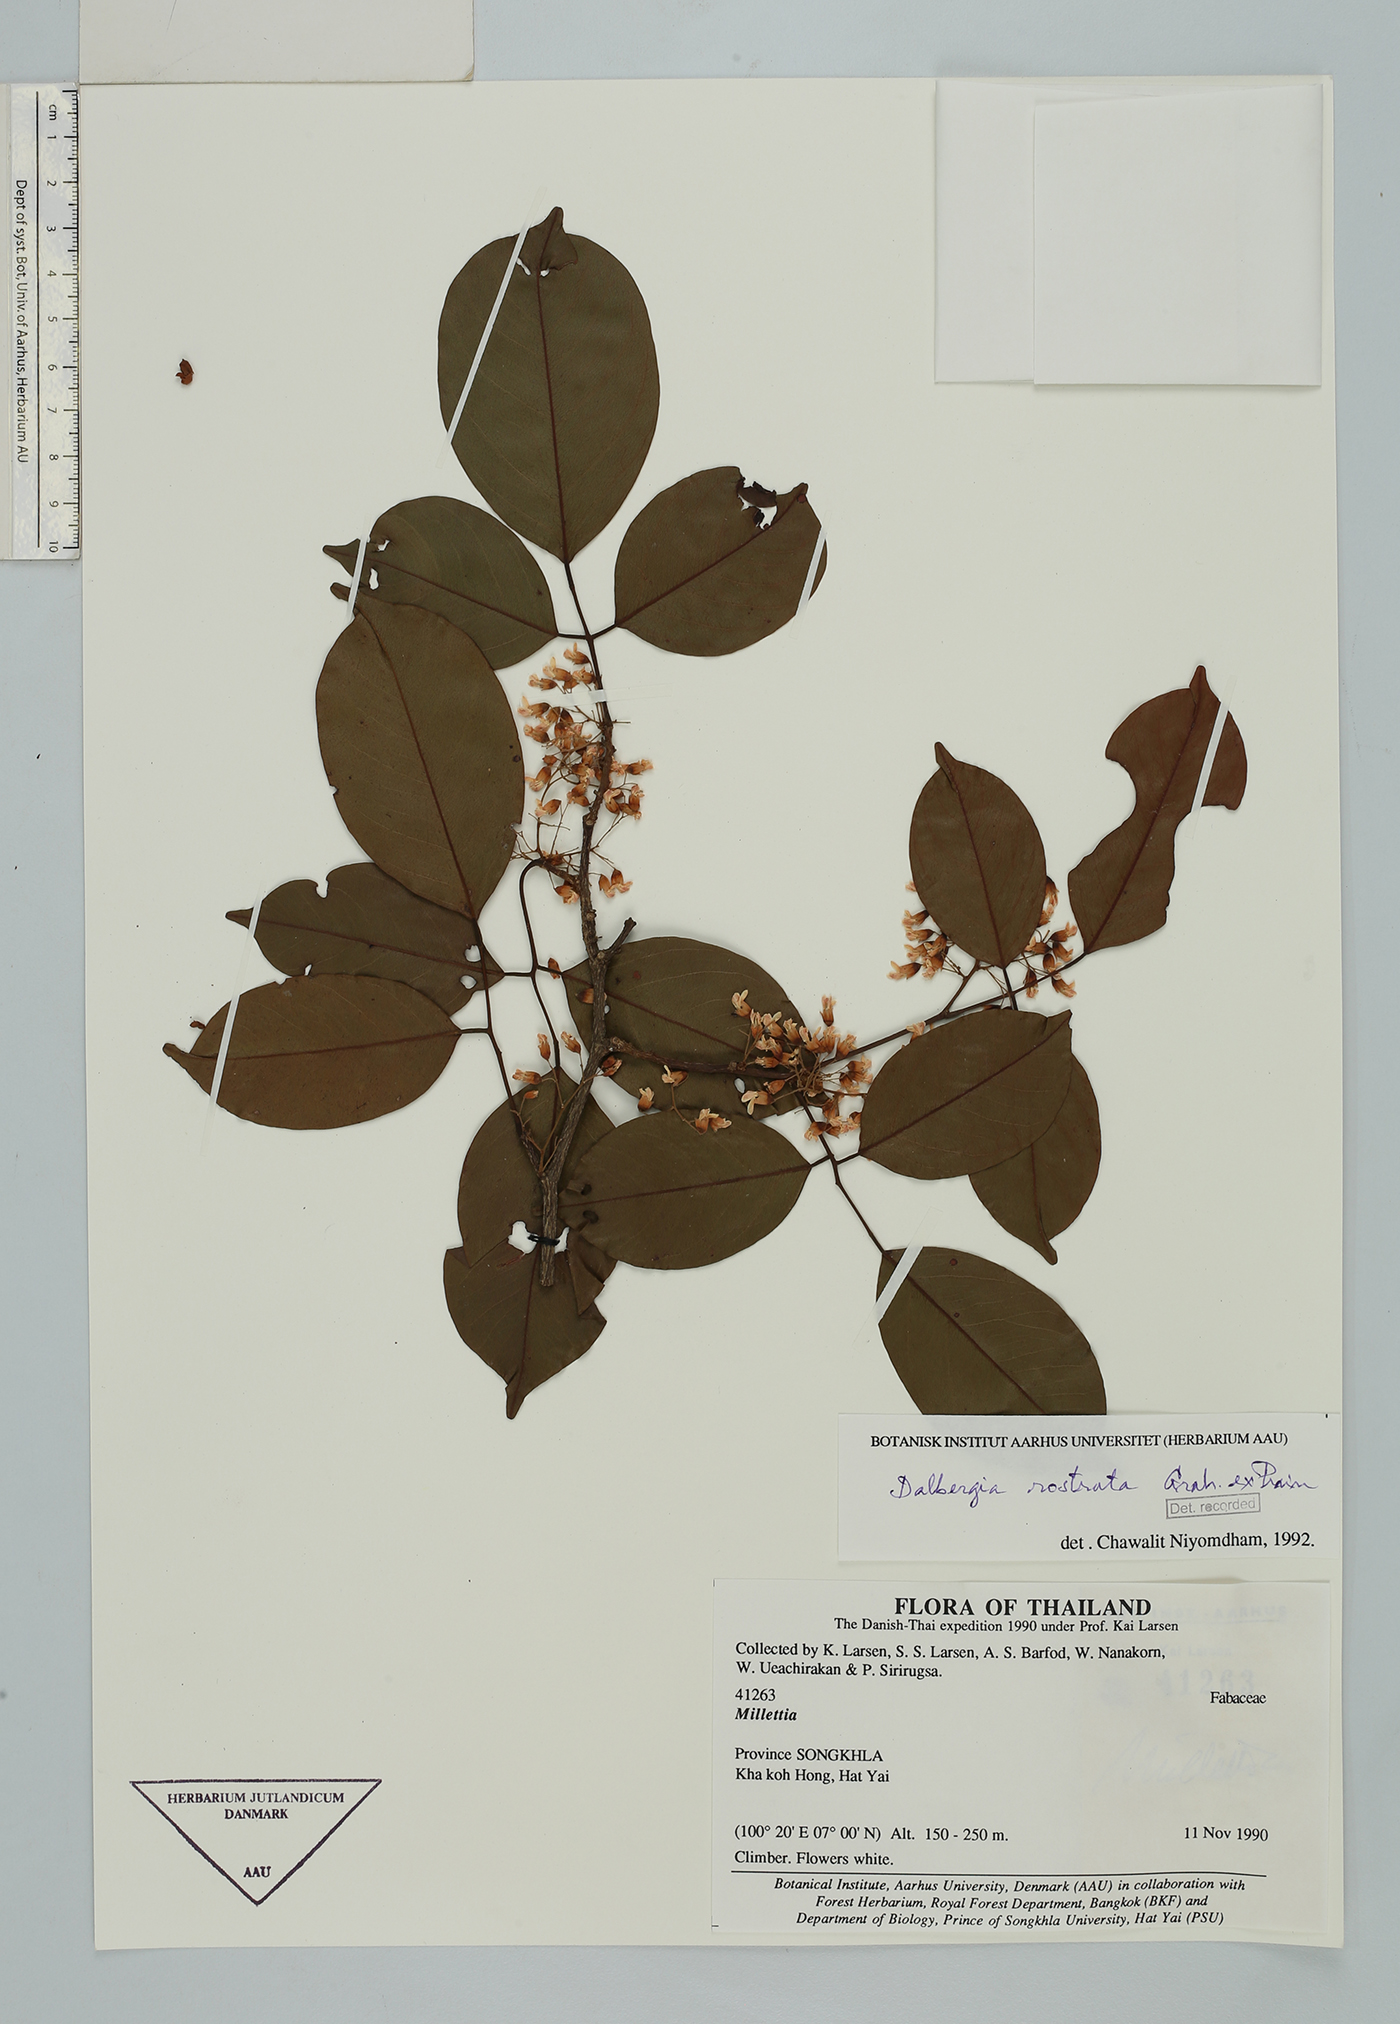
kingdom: Plantae
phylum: Tracheophyta
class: Magnoliopsida
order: Fabales
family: Fabaceae
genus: Dalbergia
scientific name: Dalbergia rostrata
